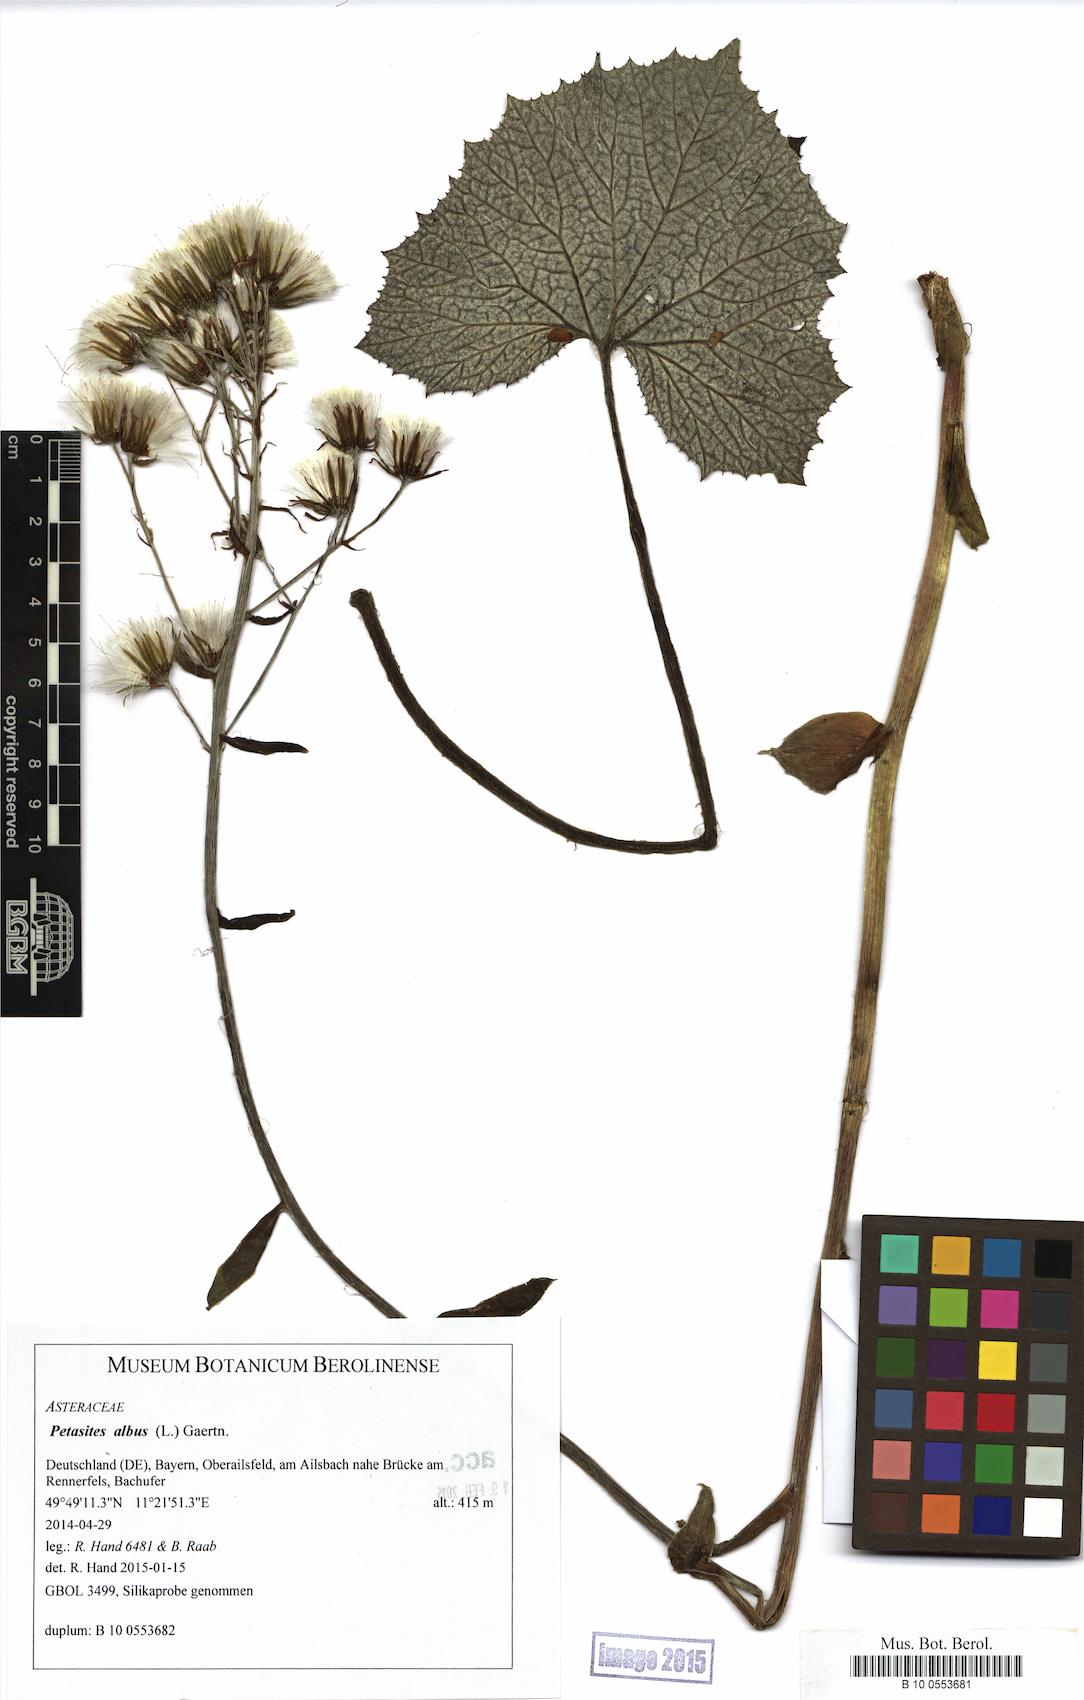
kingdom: Plantae
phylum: Tracheophyta
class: Magnoliopsida
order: Asterales
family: Asteraceae
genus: Petasites
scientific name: Petasites albus
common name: White butterbur
